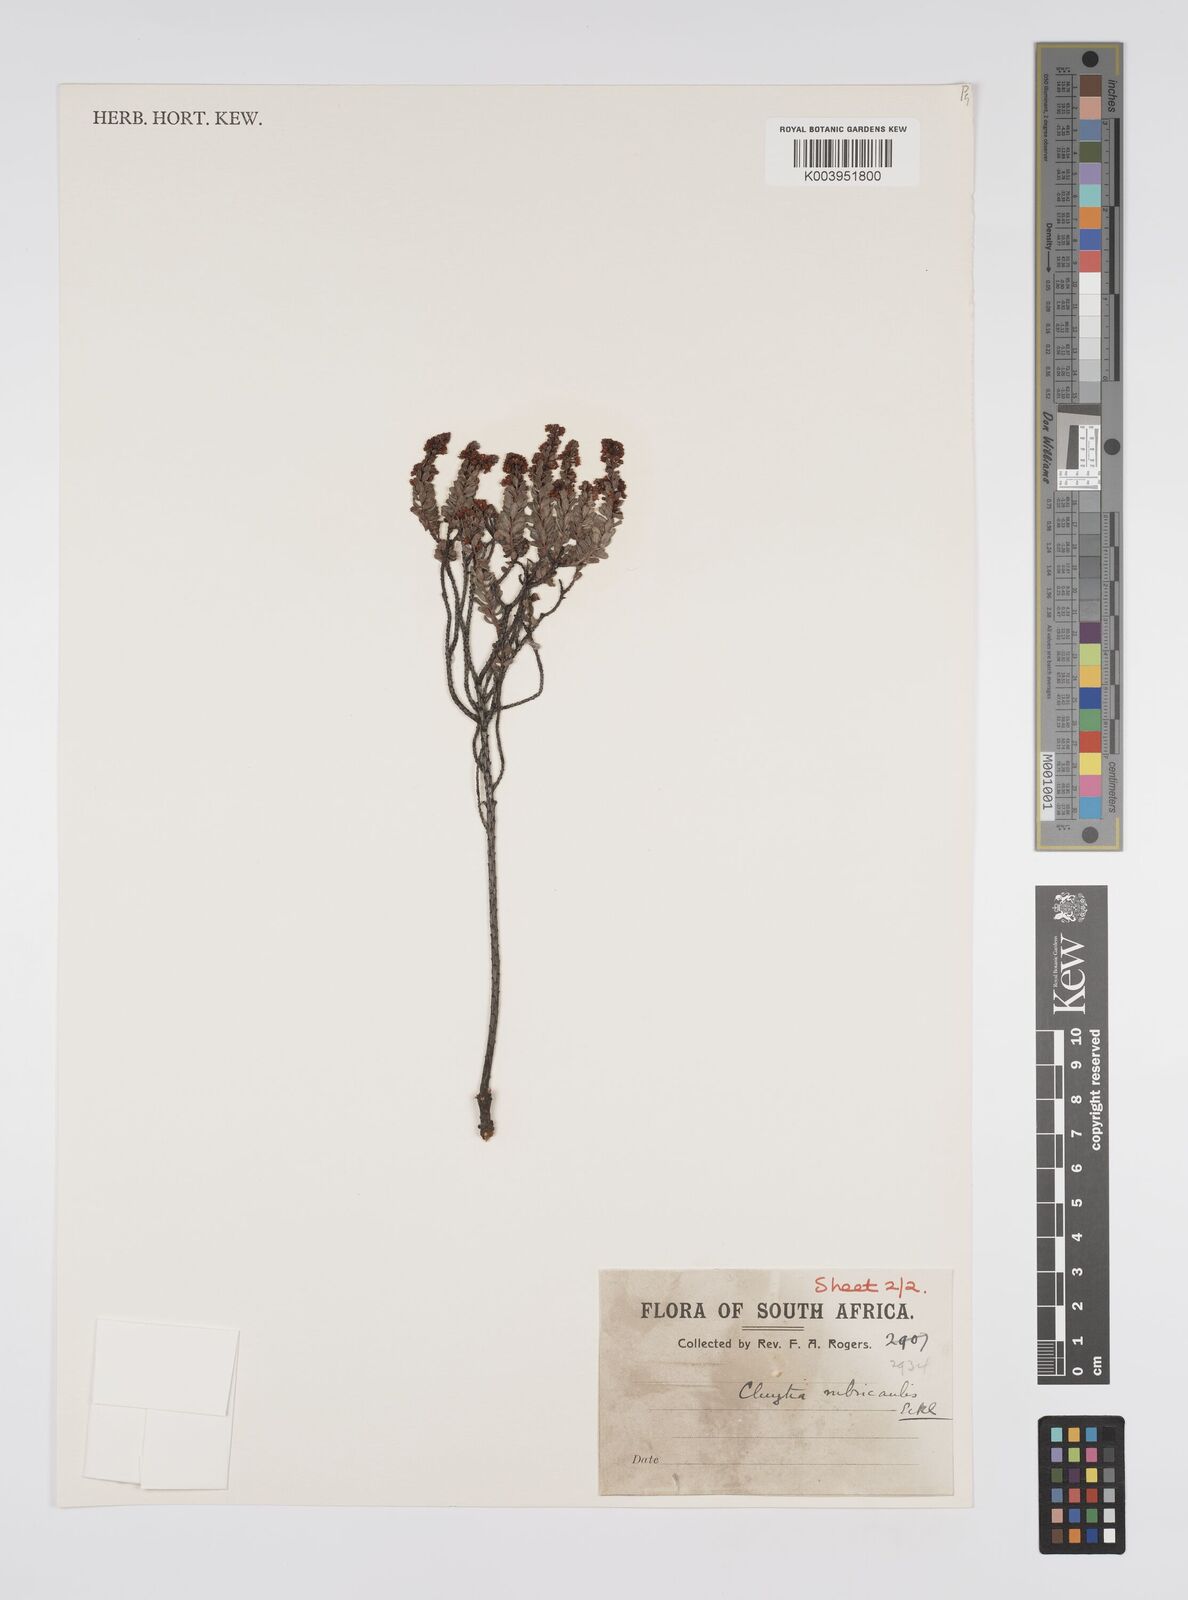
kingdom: Plantae
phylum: Tracheophyta
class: Magnoliopsida
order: Malpighiales
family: Peraceae
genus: Clutia
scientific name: Clutia rubricaulis
